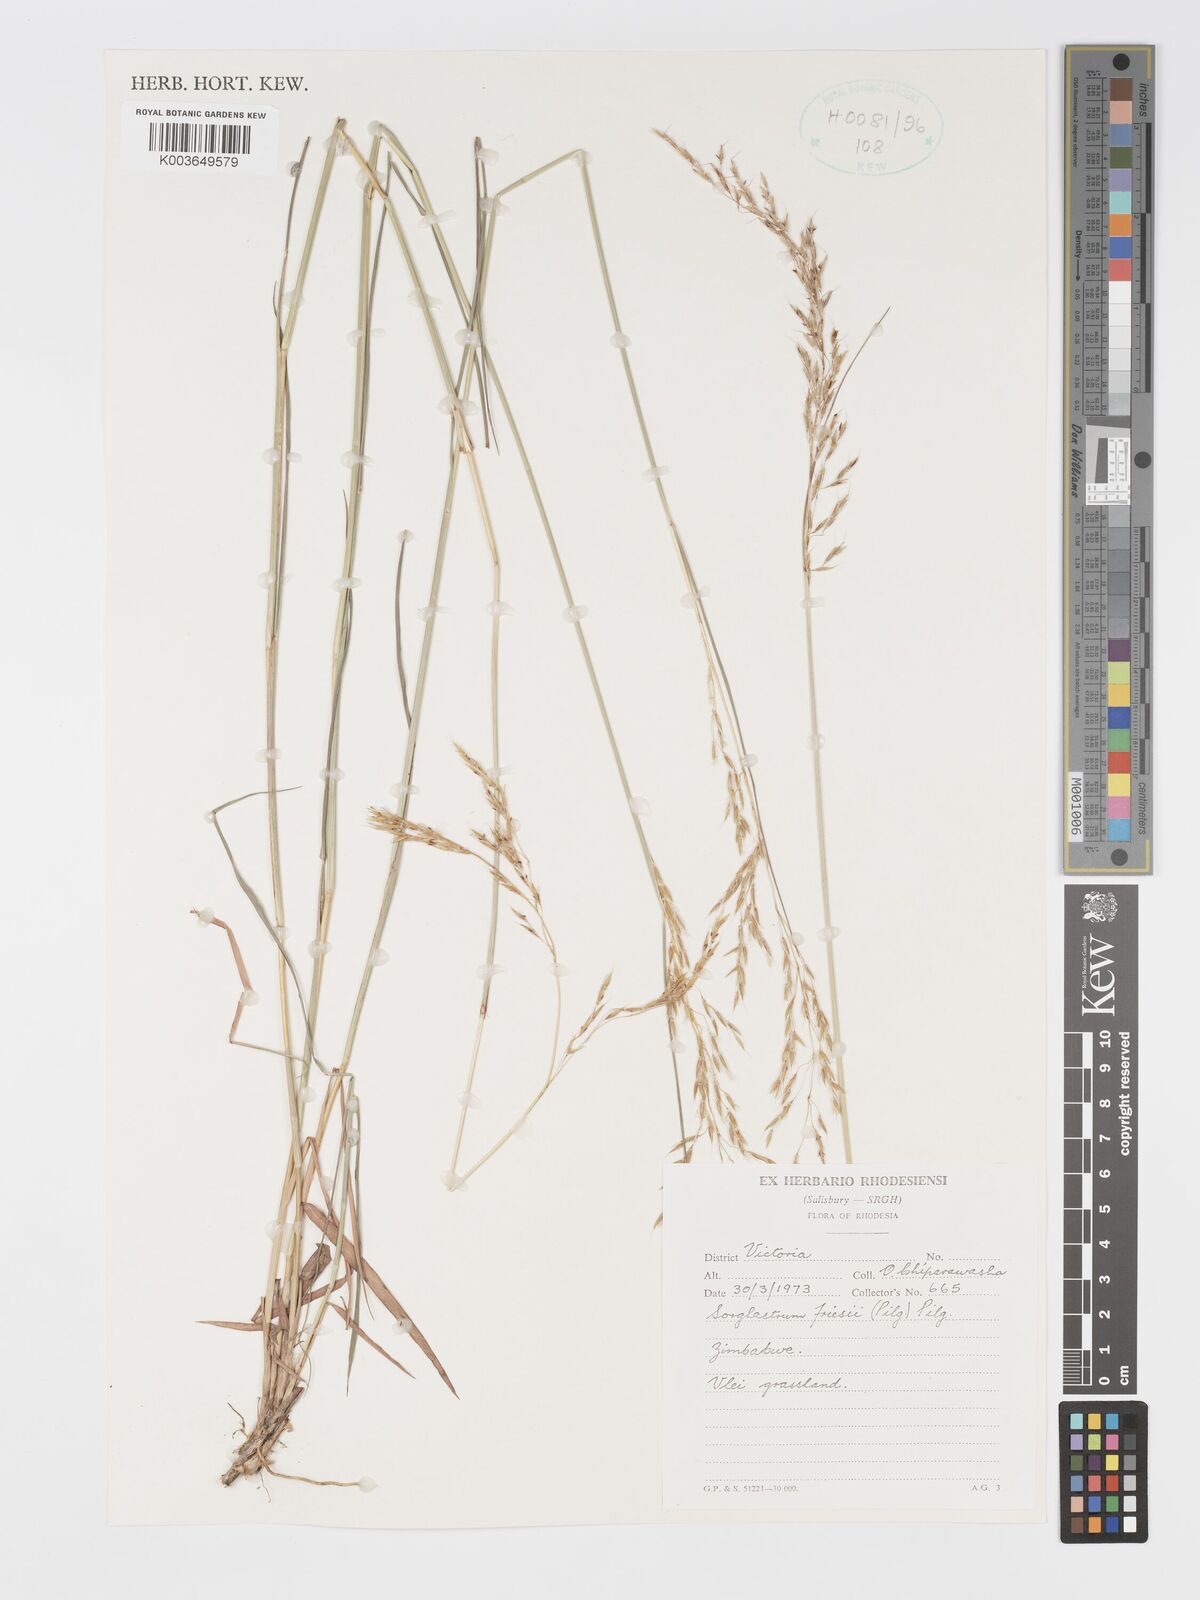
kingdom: Plantae
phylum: Tracheophyta
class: Liliopsida
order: Poales
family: Poaceae
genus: Sorghastrum
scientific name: Sorghastrum nudipes
